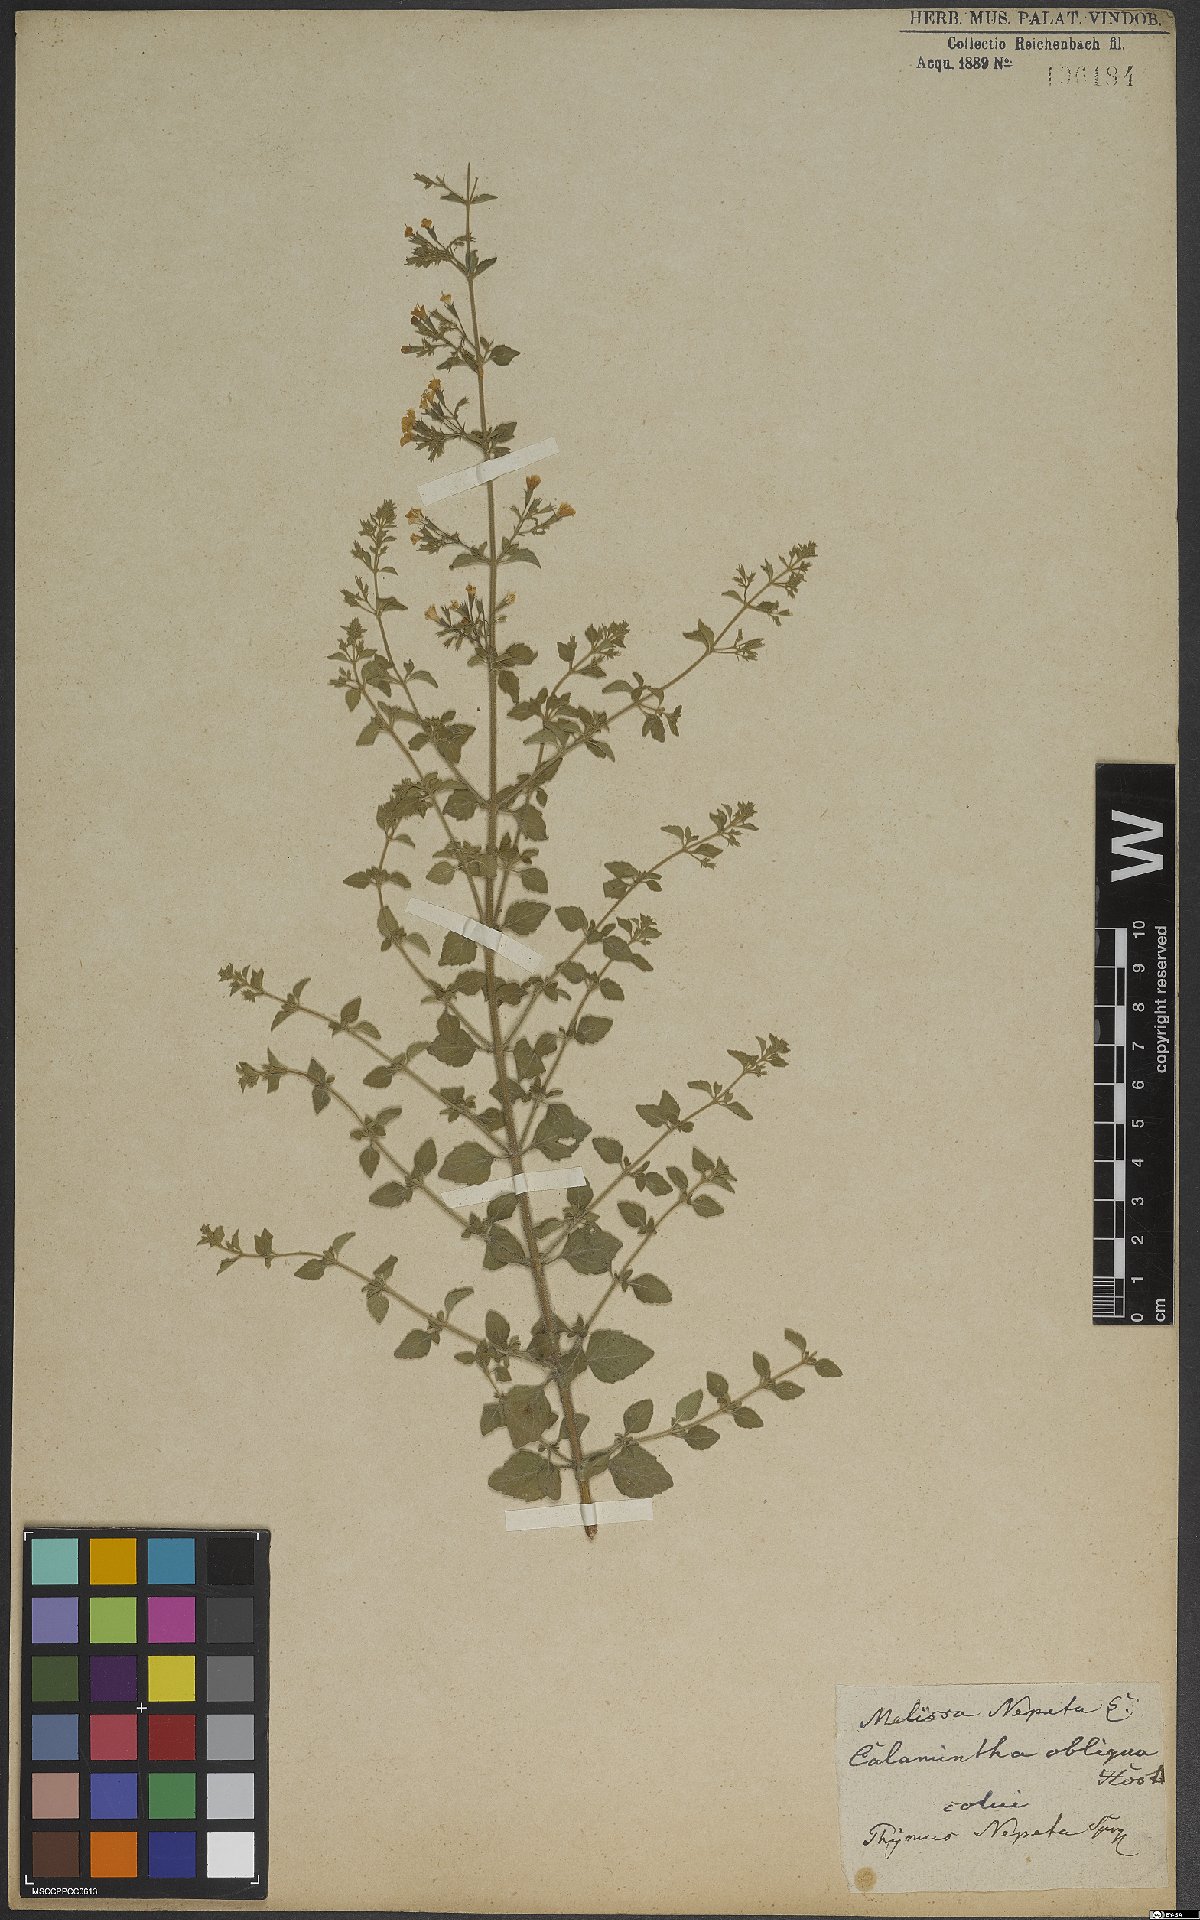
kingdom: Plantae
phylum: Tracheophyta
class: Magnoliopsida
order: Lamiales
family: Lamiaceae
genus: Clinopodium
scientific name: Clinopodium nepeta
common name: Lesser calamint
